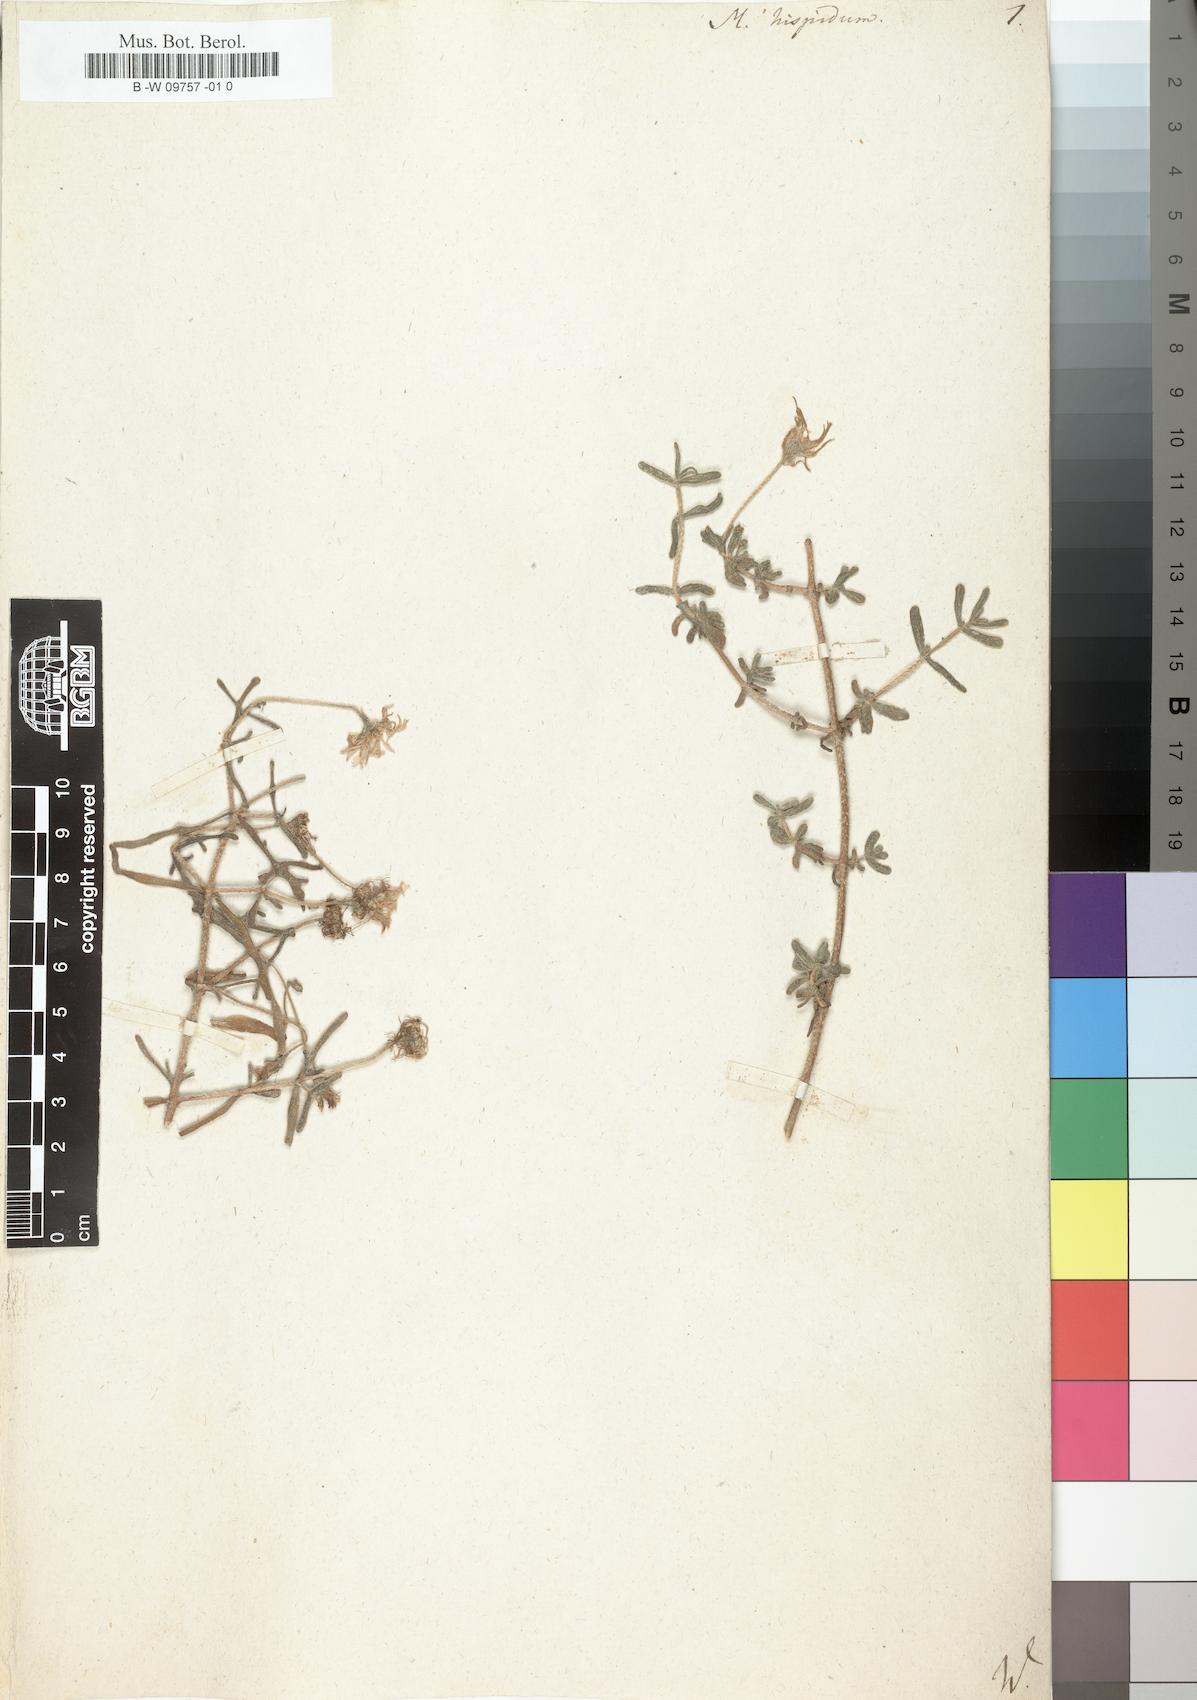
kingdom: Plantae
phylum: Tracheophyta
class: Magnoliopsida
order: Caryophyllales
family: Aizoaceae
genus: Drosanthemum
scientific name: Drosanthemum hispidum
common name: Hairy dewflower
